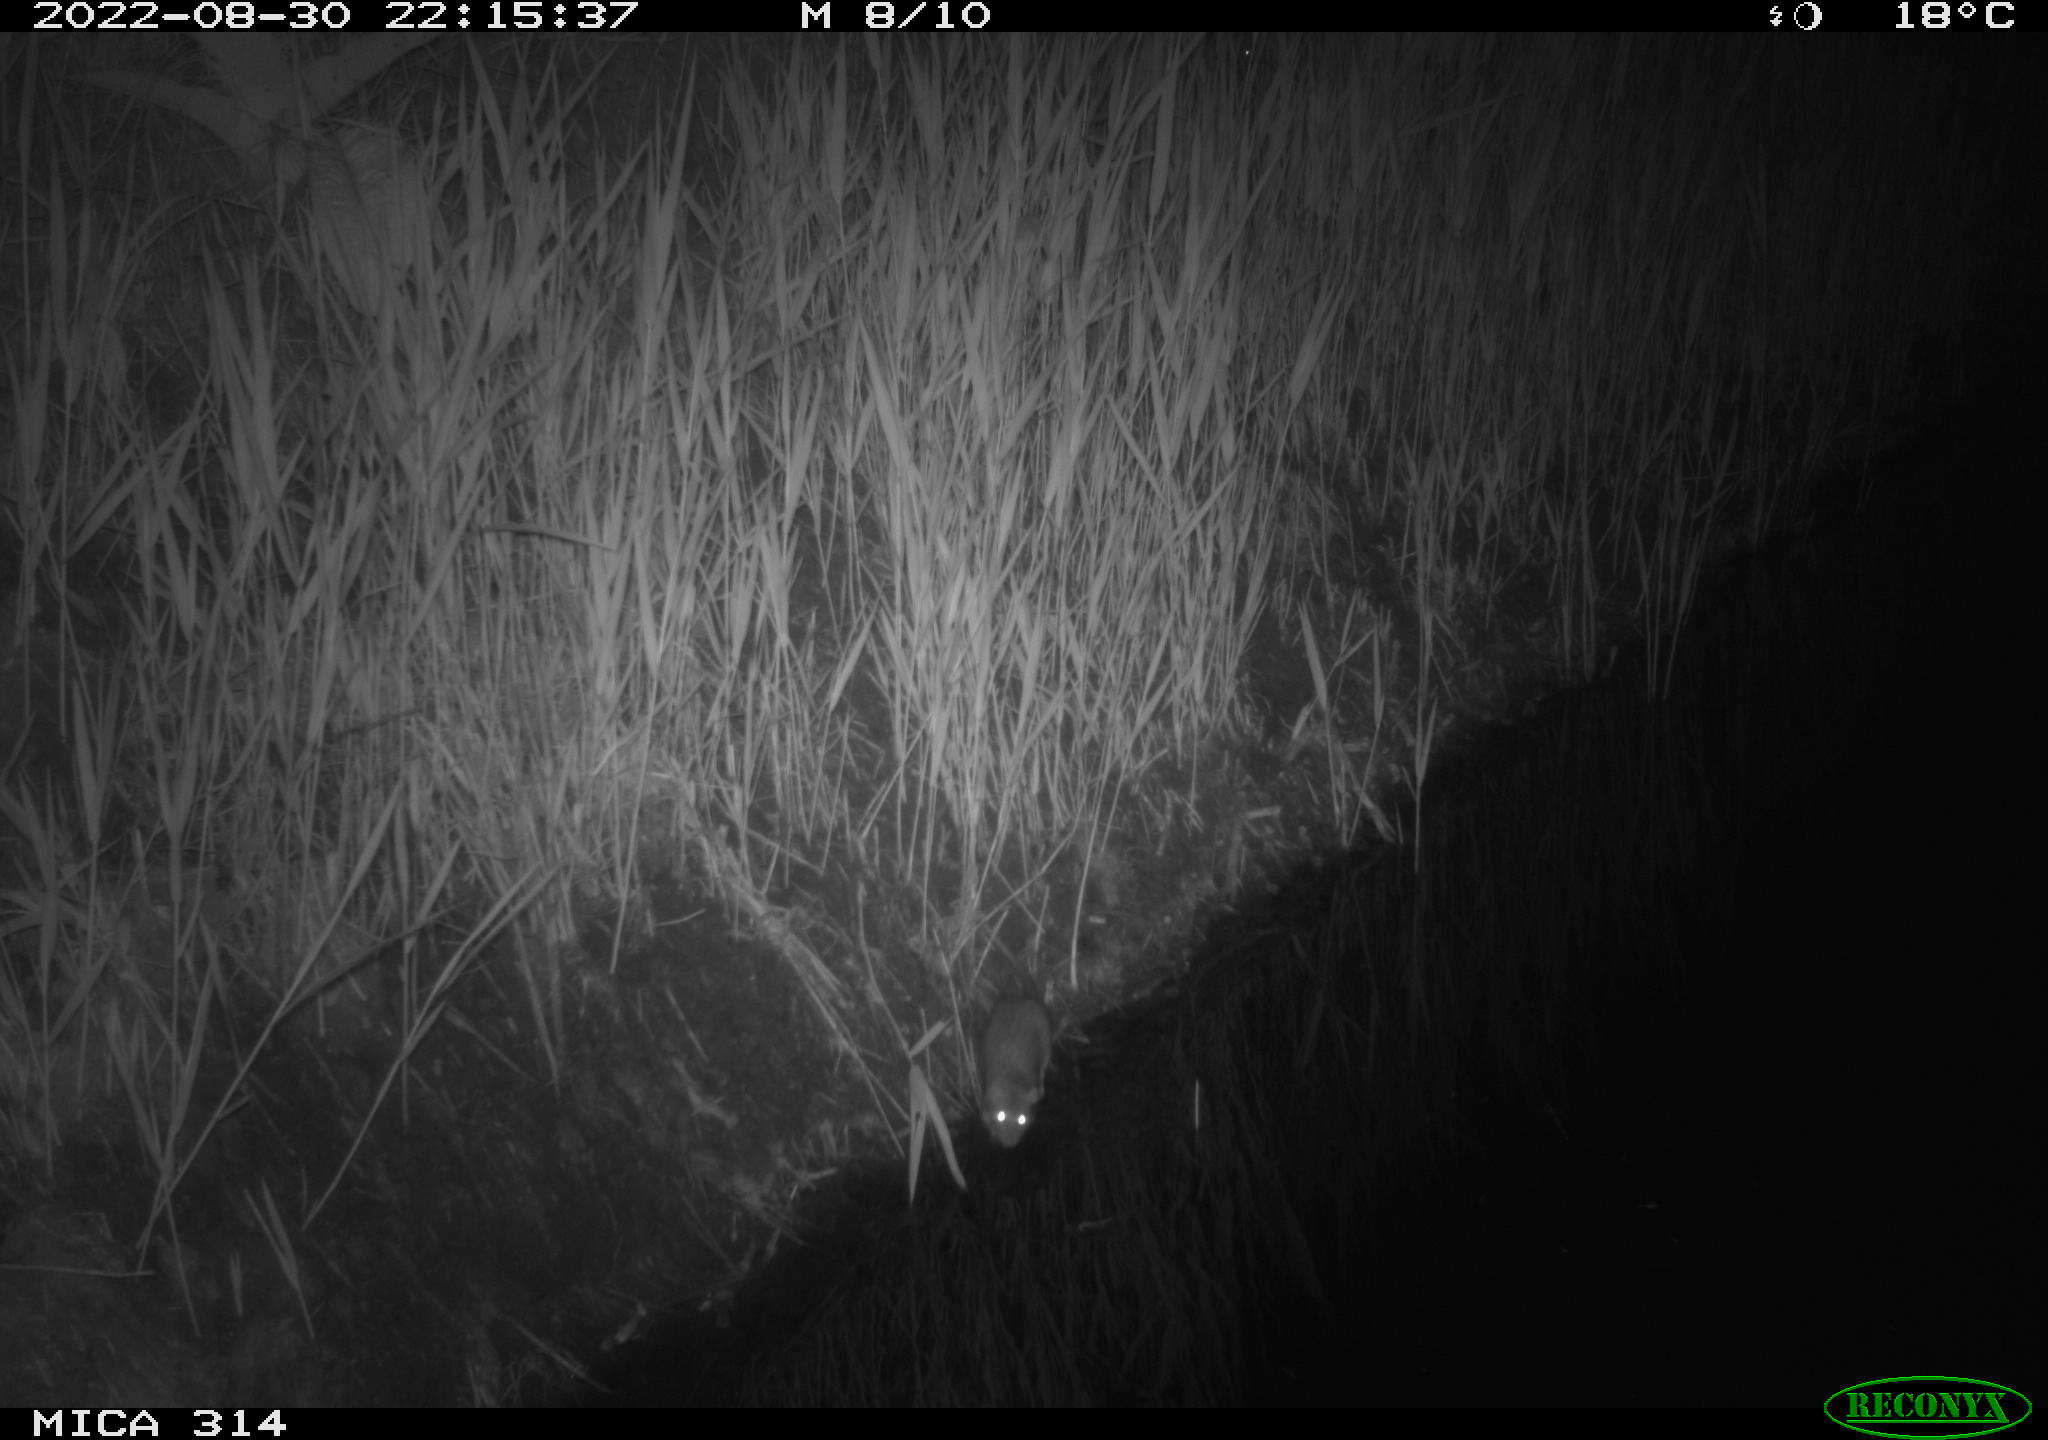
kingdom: Animalia
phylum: Chordata
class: Mammalia
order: Rodentia
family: Muridae
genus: Rattus
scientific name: Rattus norvegicus
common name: Brown rat
